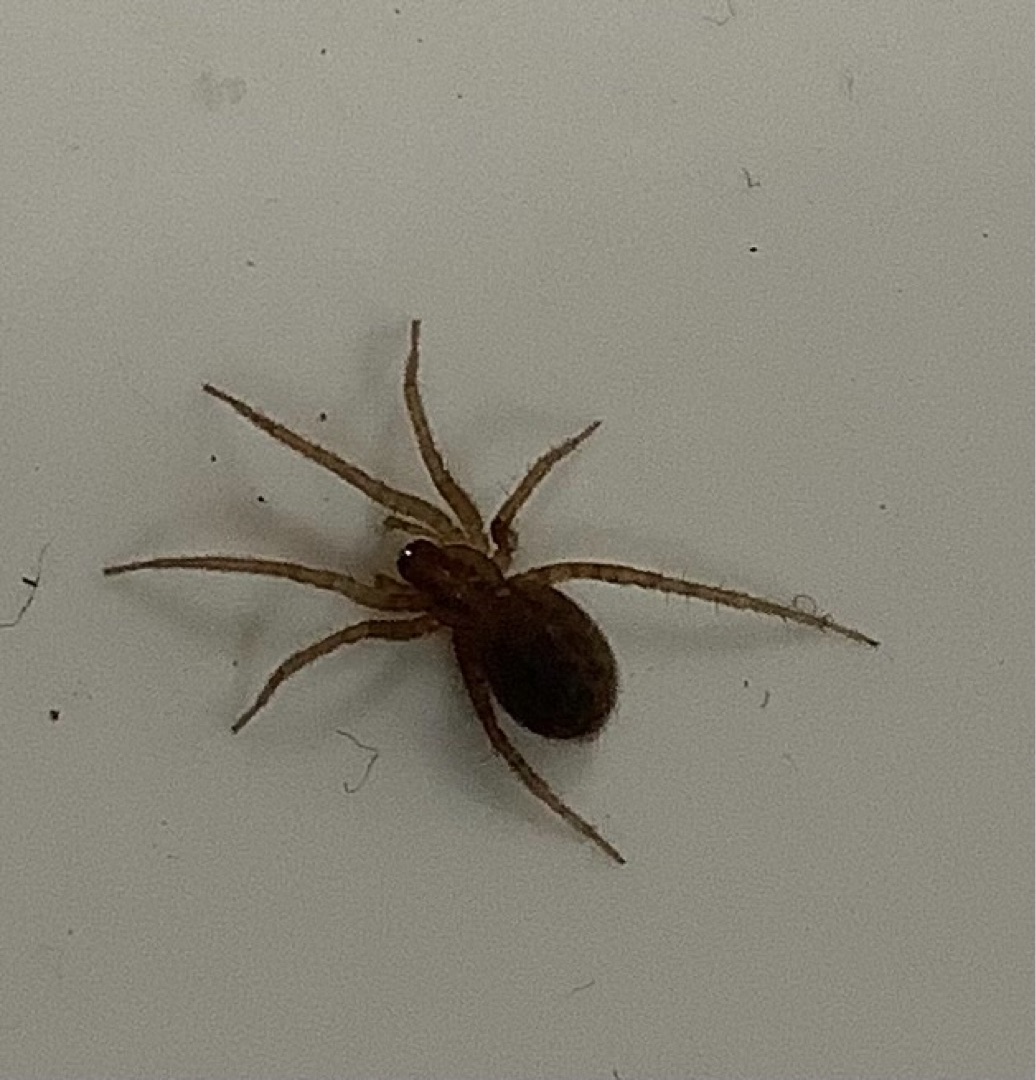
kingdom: Animalia
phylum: Arthropoda
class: Arachnida
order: Araneae
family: Agelenidae
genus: Tegenaria
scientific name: Tegenaria domestica
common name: Lille husedderkop
